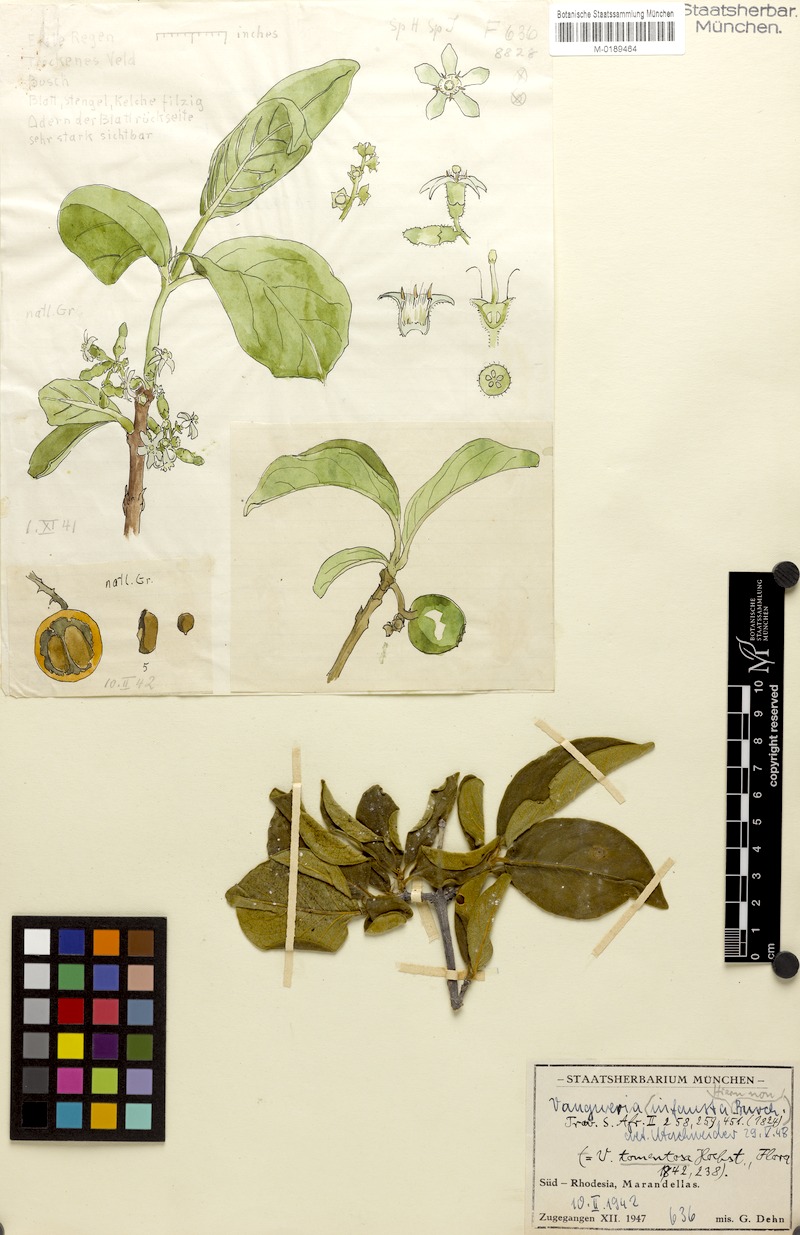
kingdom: Plantae
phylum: Tracheophyta
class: Magnoliopsida
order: Gentianales
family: Rubiaceae
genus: Vangueria
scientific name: Vangueria infausta
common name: Medlar
